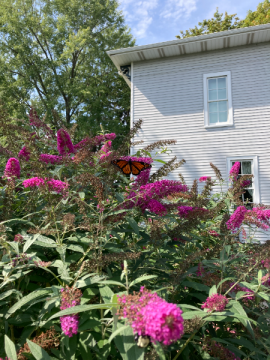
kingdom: Animalia
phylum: Arthropoda
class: Insecta
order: Lepidoptera
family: Nymphalidae
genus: Danaus
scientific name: Danaus plexippus
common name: Monarch
